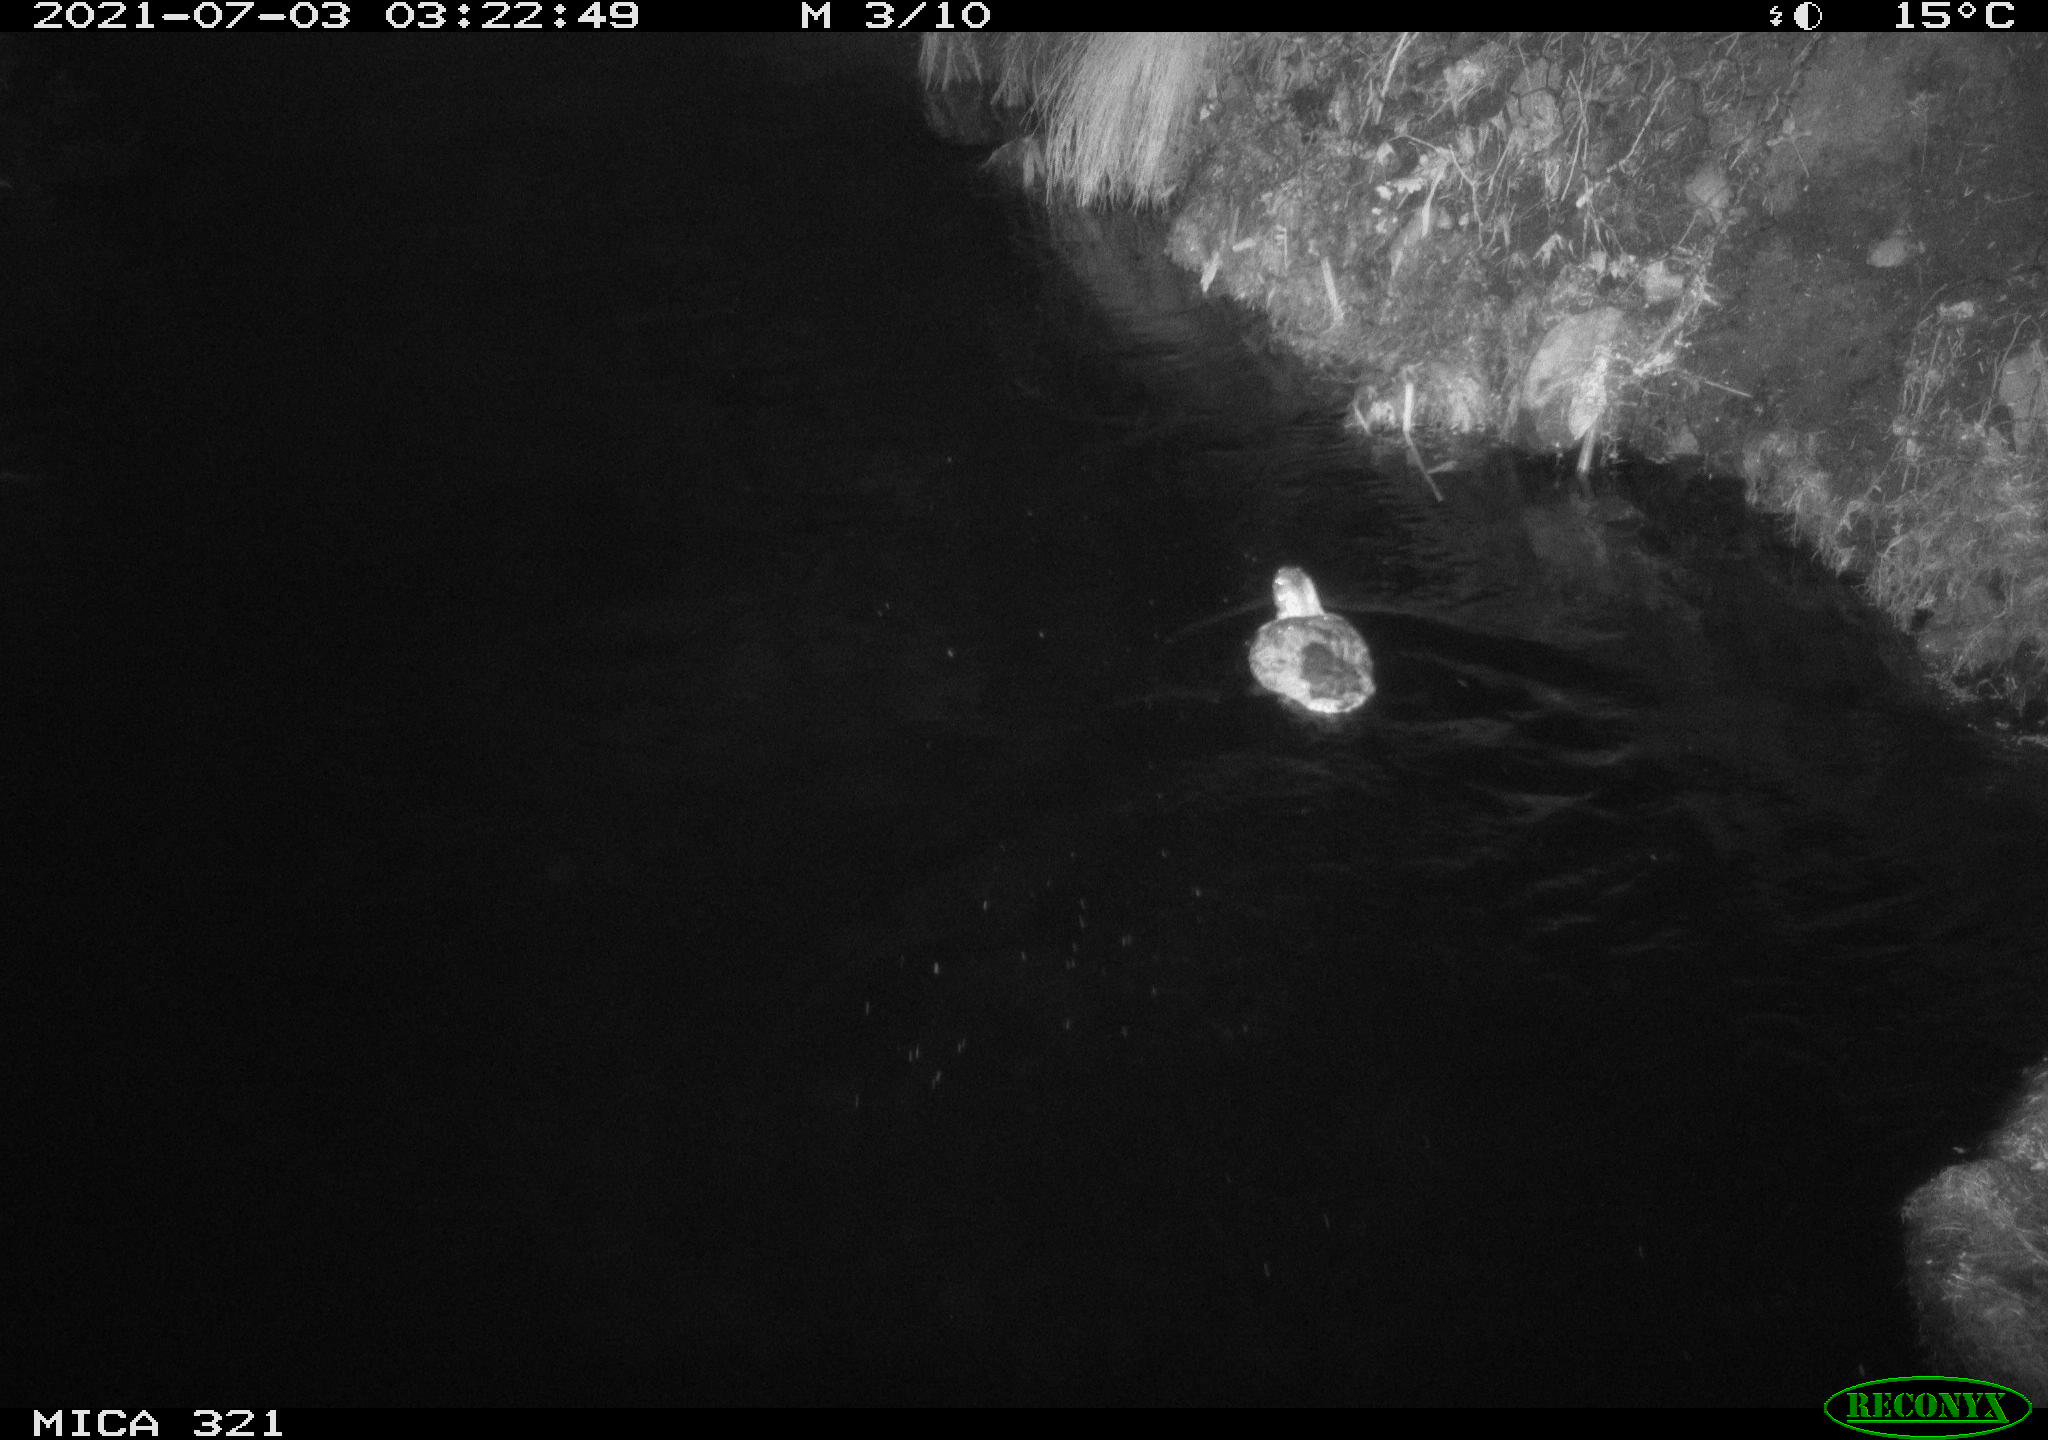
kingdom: Animalia
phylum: Chordata
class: Aves
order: Anseriformes
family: Anatidae
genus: Anas
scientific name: Anas platyrhynchos
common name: Mallard
